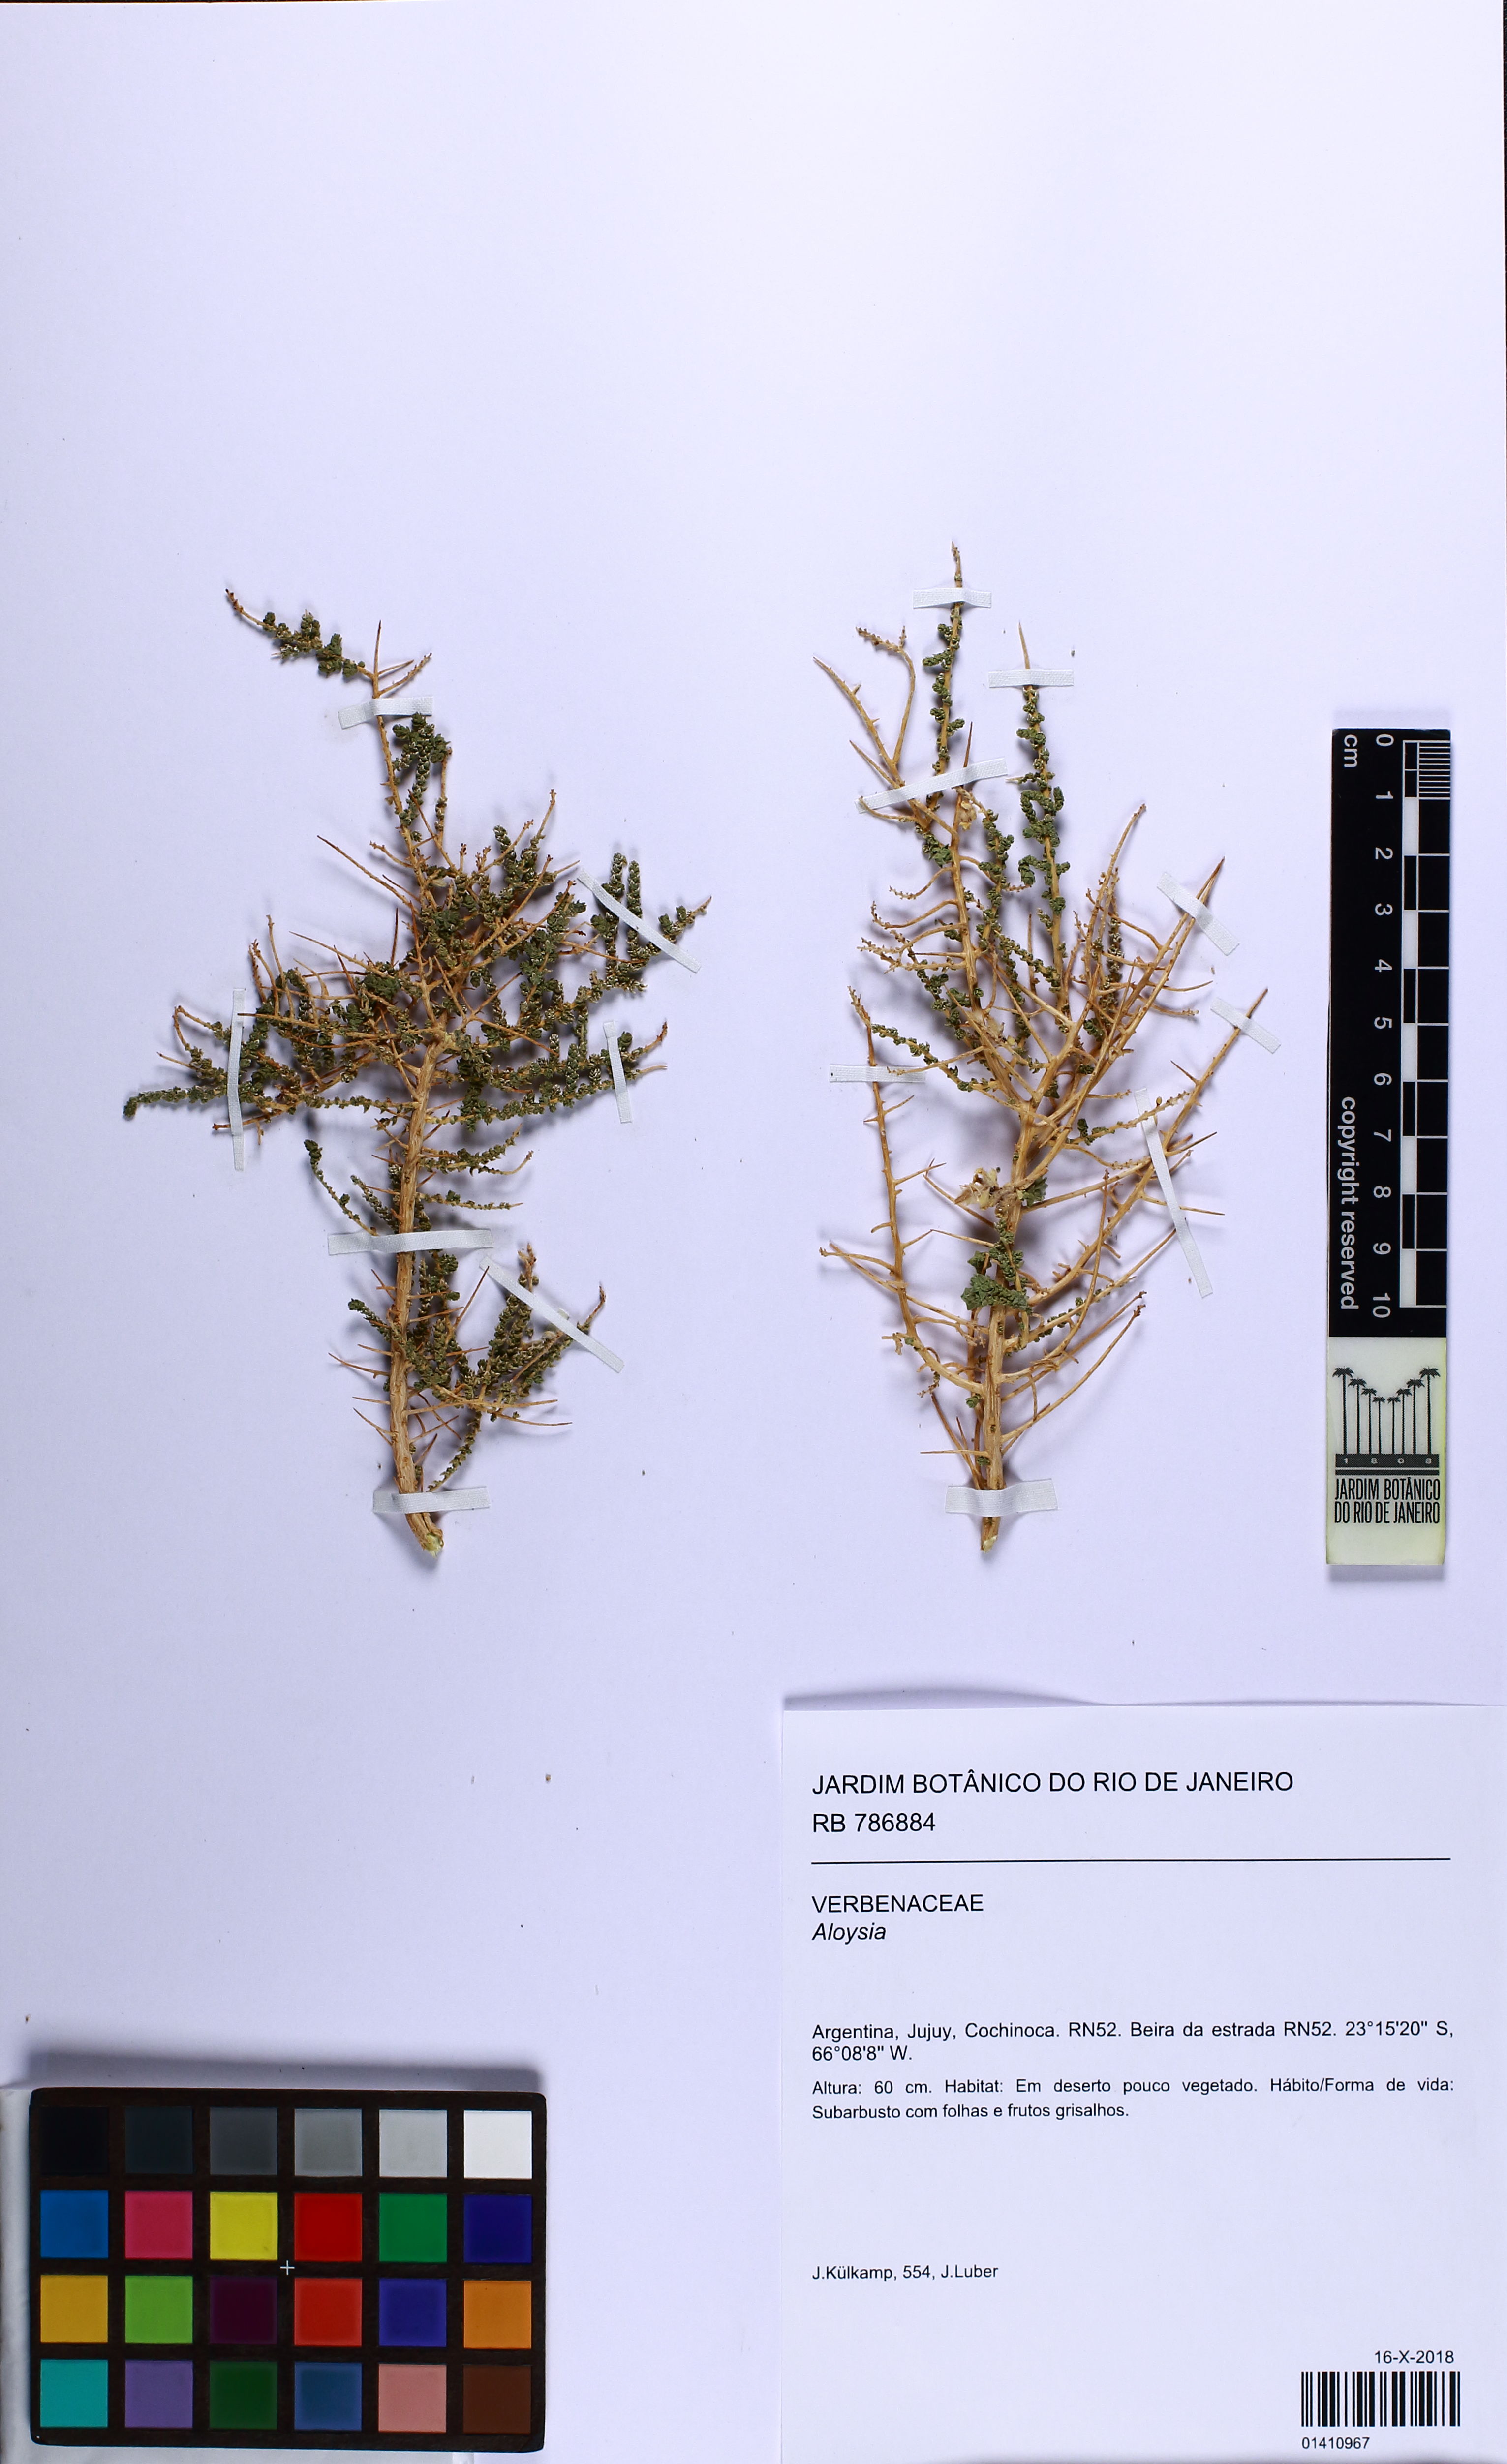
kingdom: Plantae
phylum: Tracheophyta
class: Magnoliopsida
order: Lamiales
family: Verbenaceae
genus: Aloysia
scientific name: Aloysia
